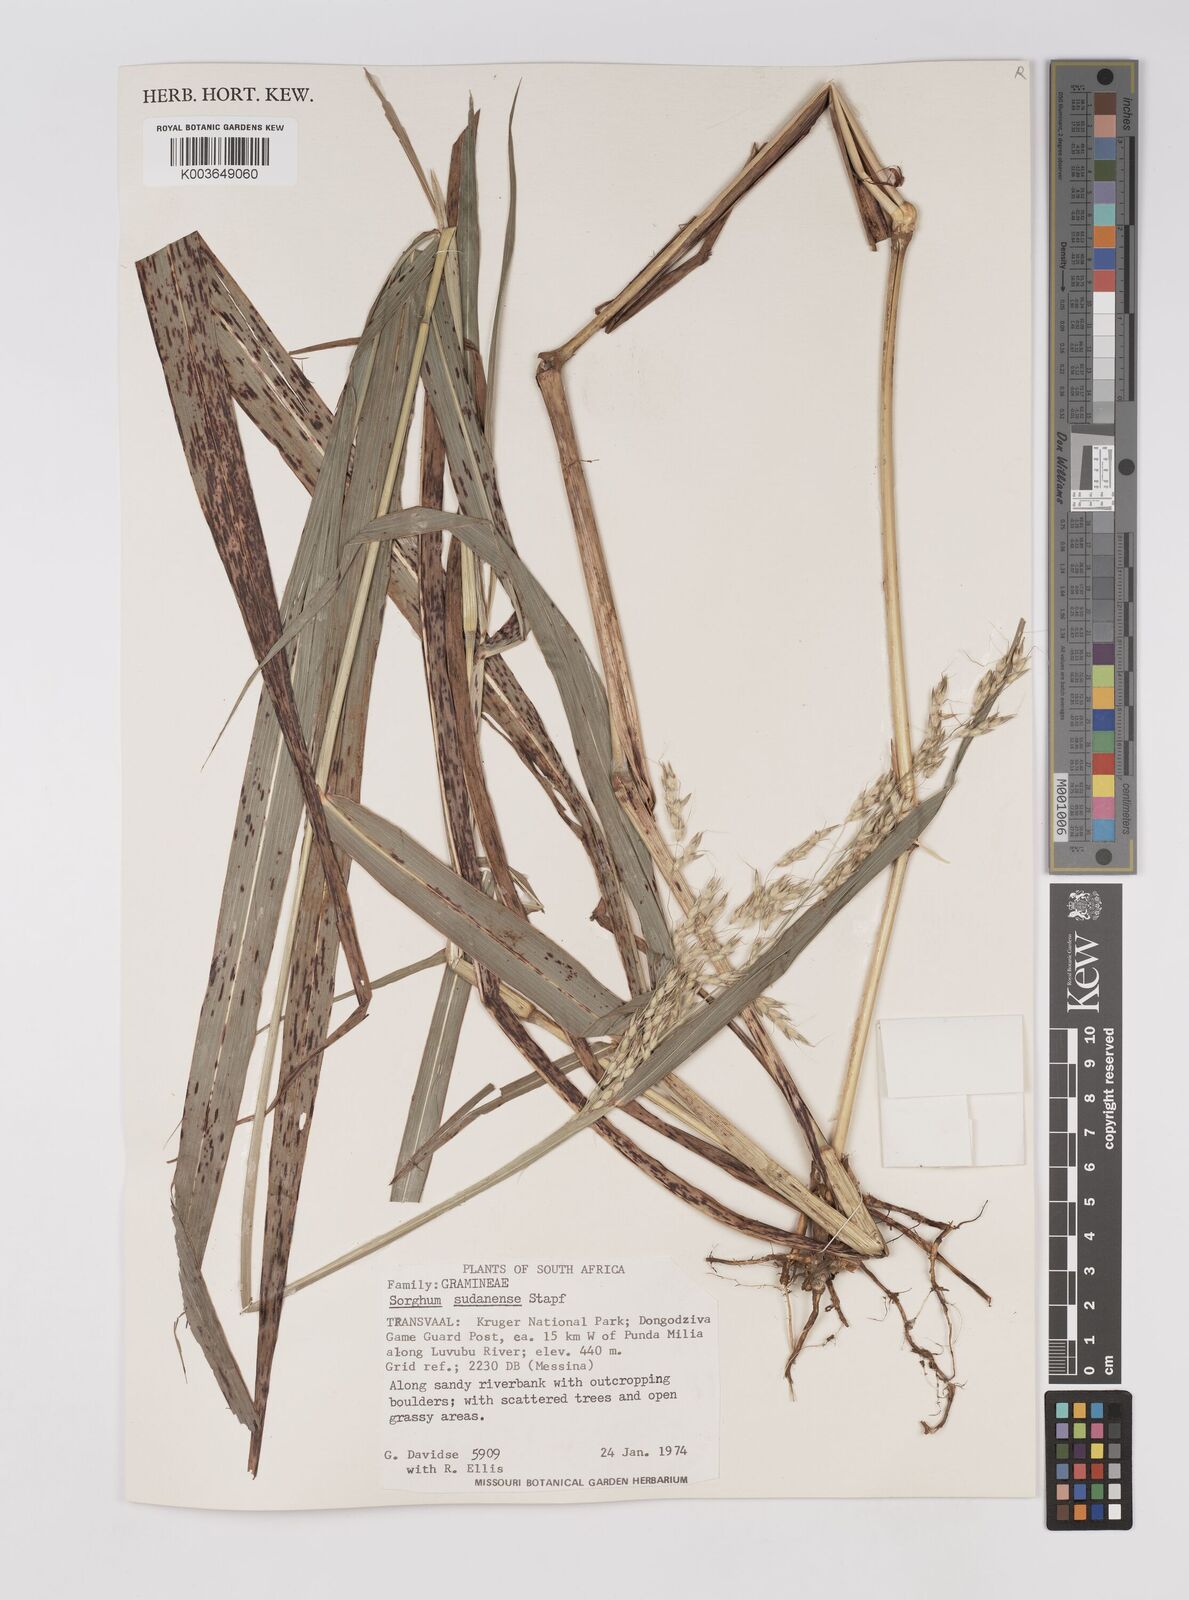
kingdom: Plantae
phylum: Tracheophyta
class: Liliopsida
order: Poales
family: Poaceae
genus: Sorghum
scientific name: Sorghum drummondii
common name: Sudangrass
